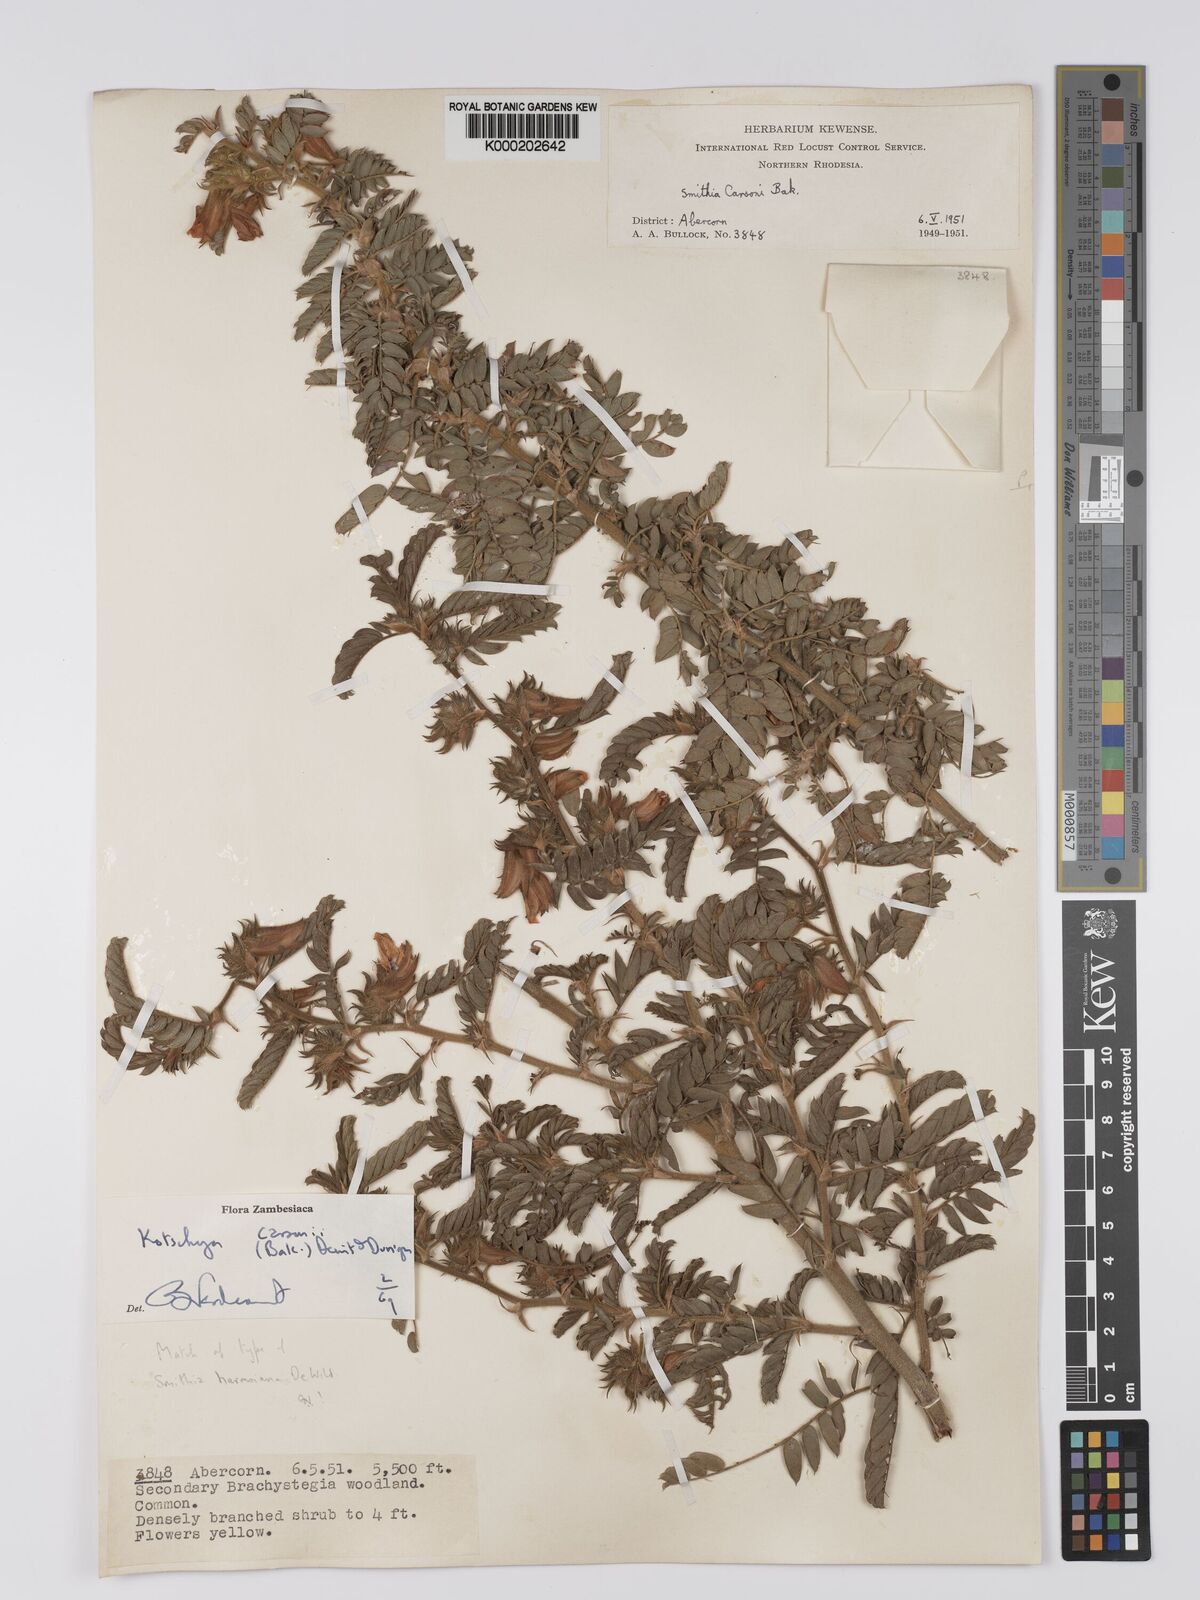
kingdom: Plantae
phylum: Tracheophyta
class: Magnoliopsida
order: Fabales
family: Fabaceae
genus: Kotschya
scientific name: Kotschya carsonii
